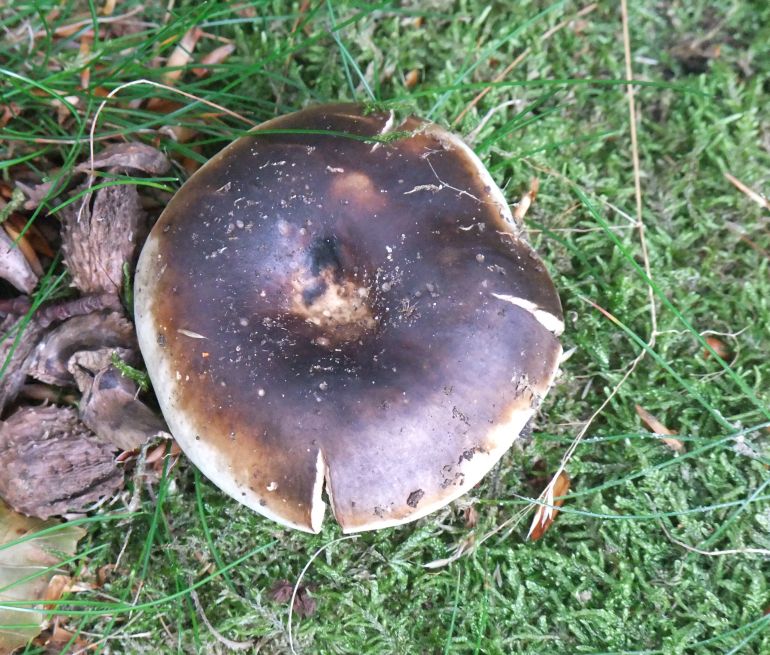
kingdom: Fungi
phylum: Basidiomycota
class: Agaricomycetes
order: Russulales
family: Russulaceae
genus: Russula
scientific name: Russula adusta
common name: sværtende skørhat
